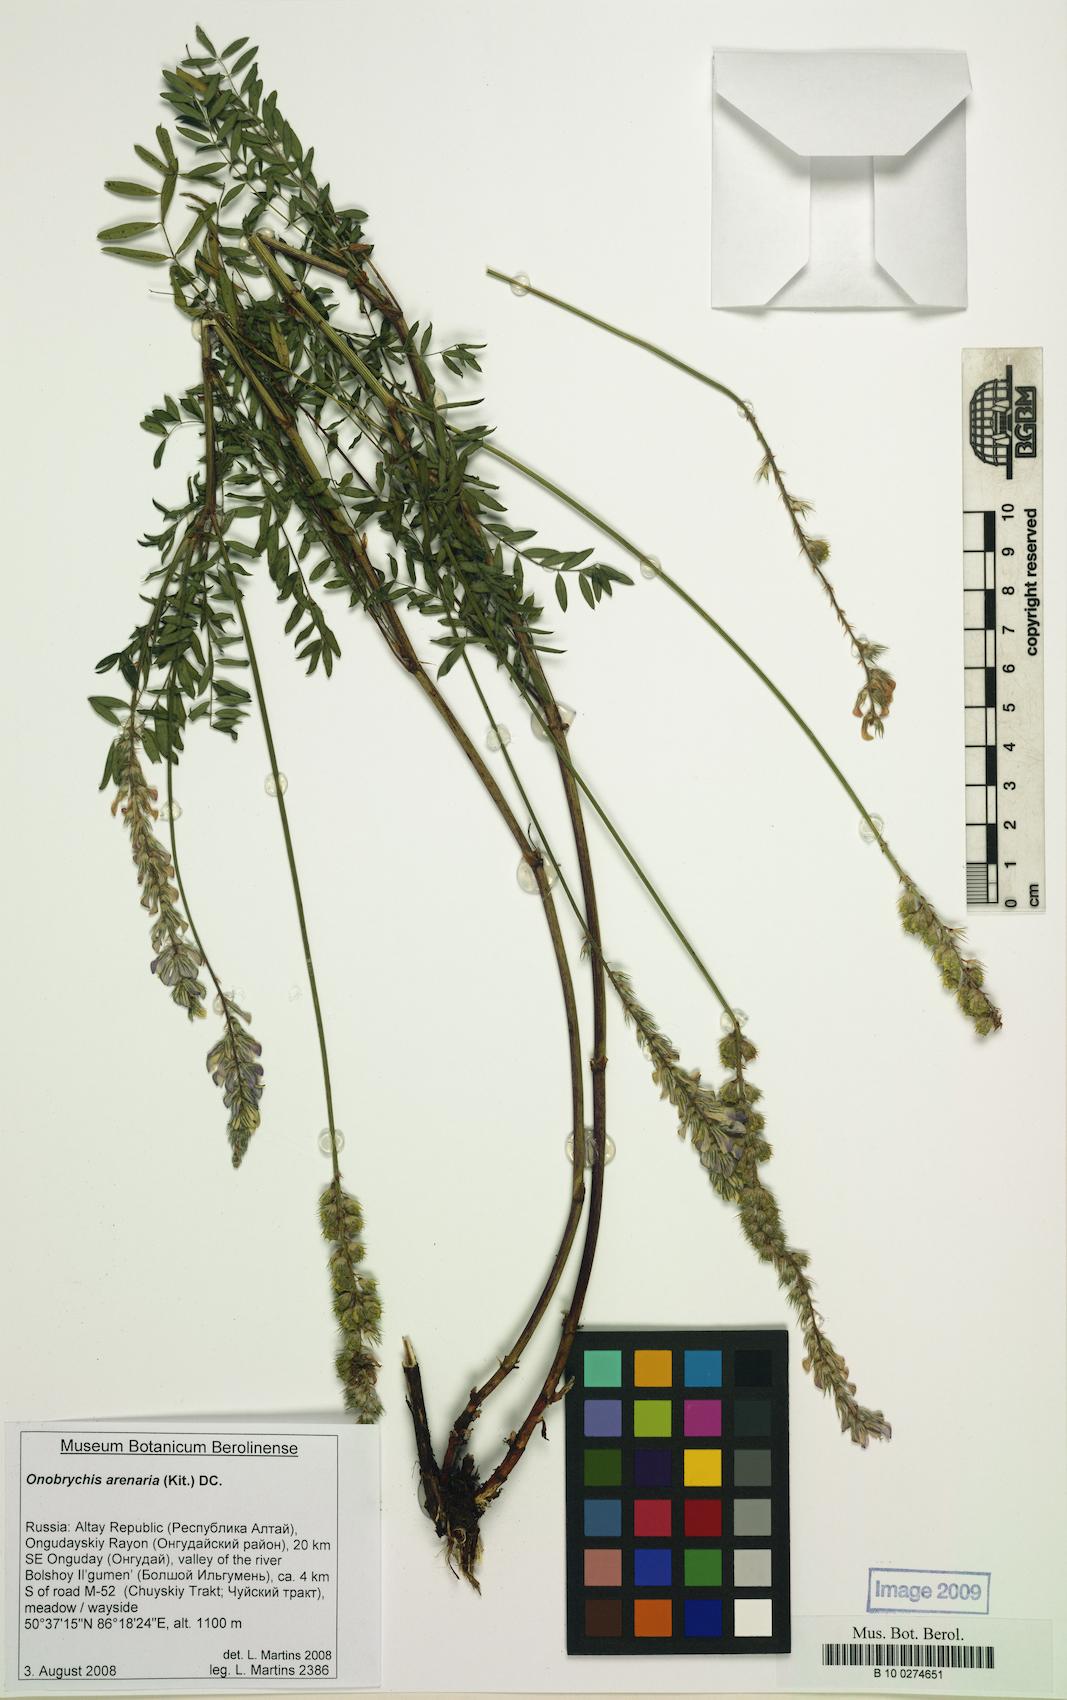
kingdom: Plantae
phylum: Tracheophyta
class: Magnoliopsida
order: Fabales
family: Fabaceae
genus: Onobrychis
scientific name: Onobrychis arenaria
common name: Sand esparcet
